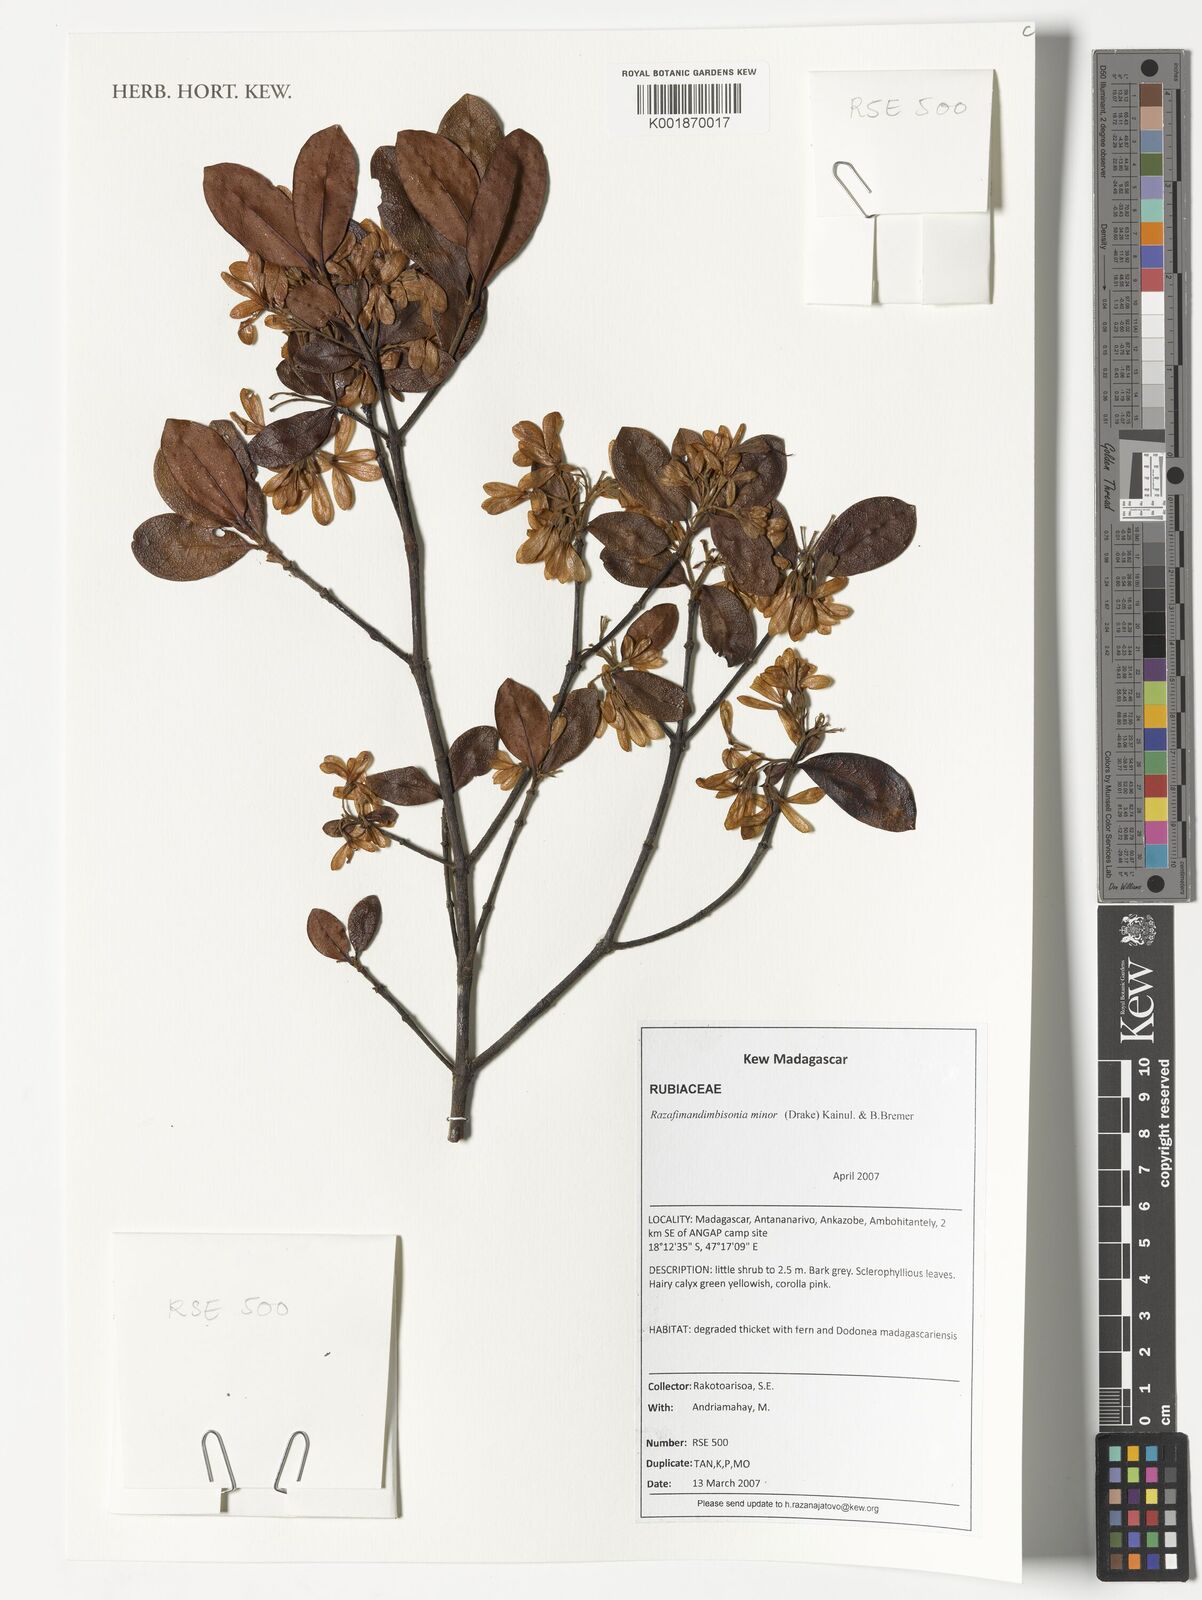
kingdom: Plantae
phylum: Tracheophyta
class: Magnoliopsida
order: Gentianales
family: Rubiaceae
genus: Razafimandimbisonia
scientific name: Razafimandimbisonia minor
